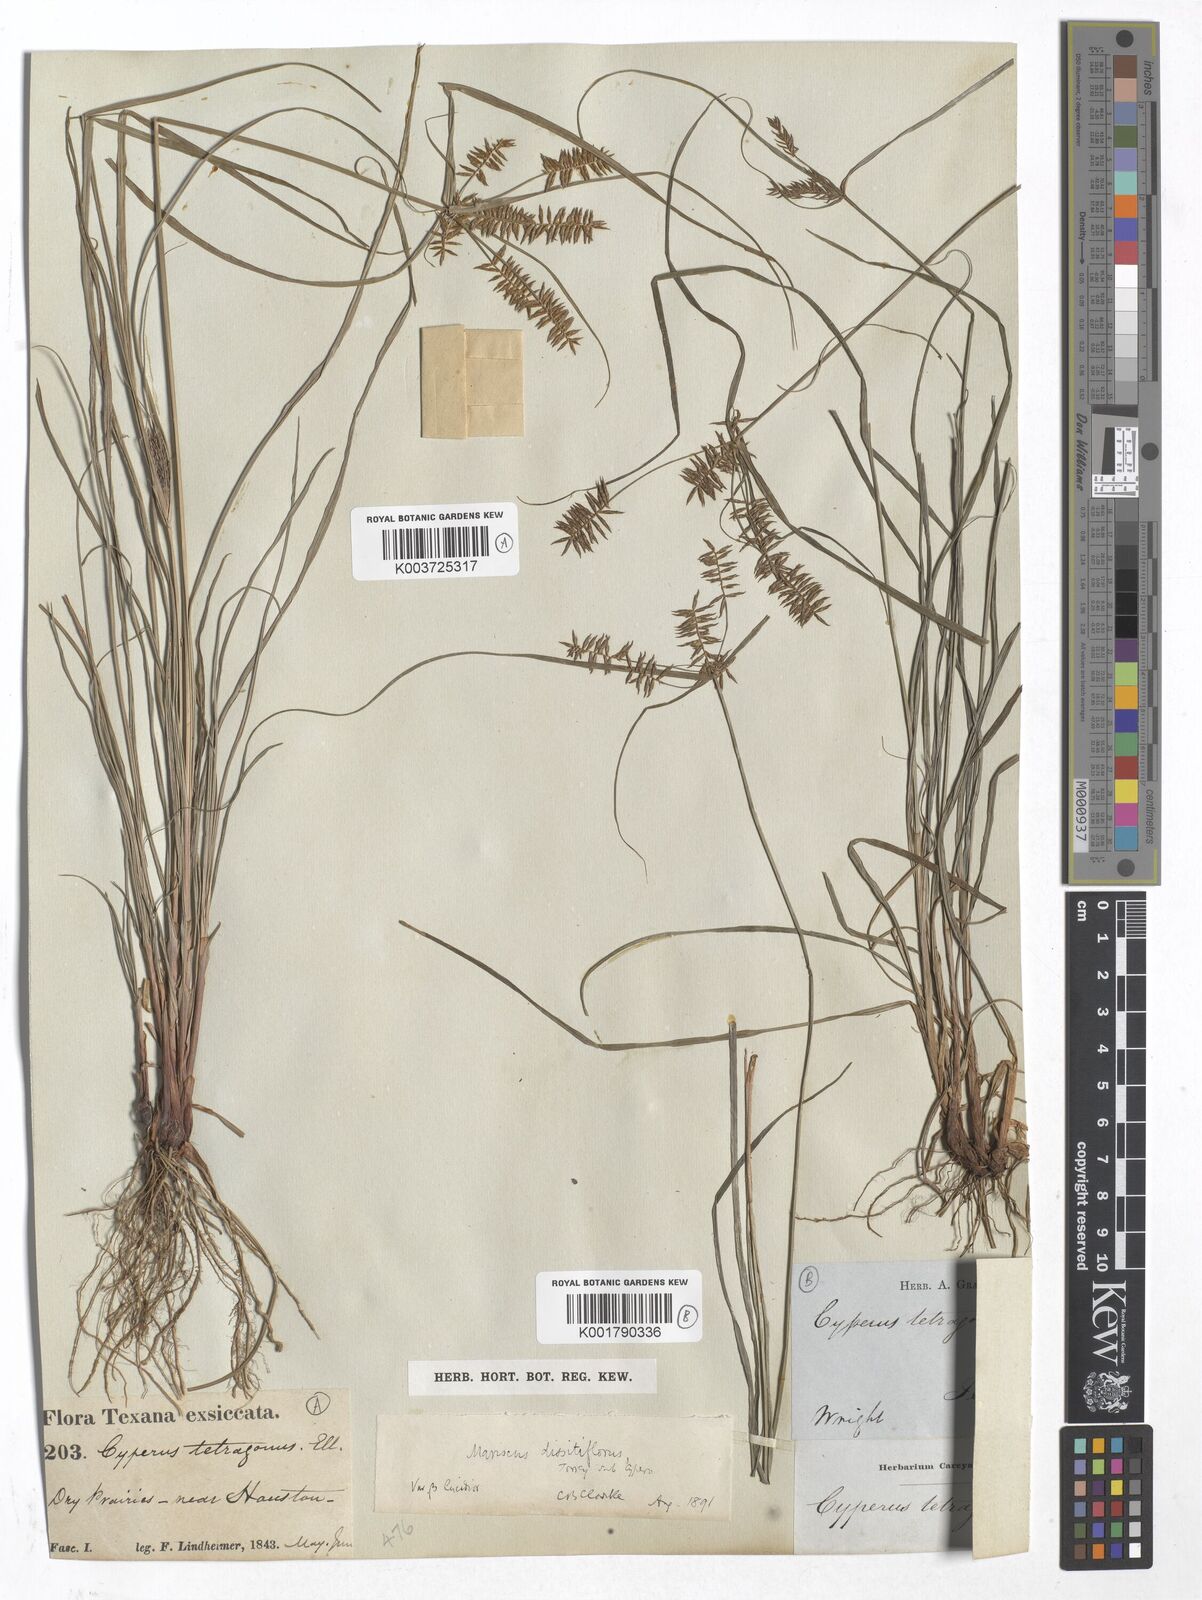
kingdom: Plantae
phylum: Tracheophyta
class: Liliopsida
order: Poales
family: Cyperaceae
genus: Cyperus
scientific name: Cyperus thyrsiflorus
